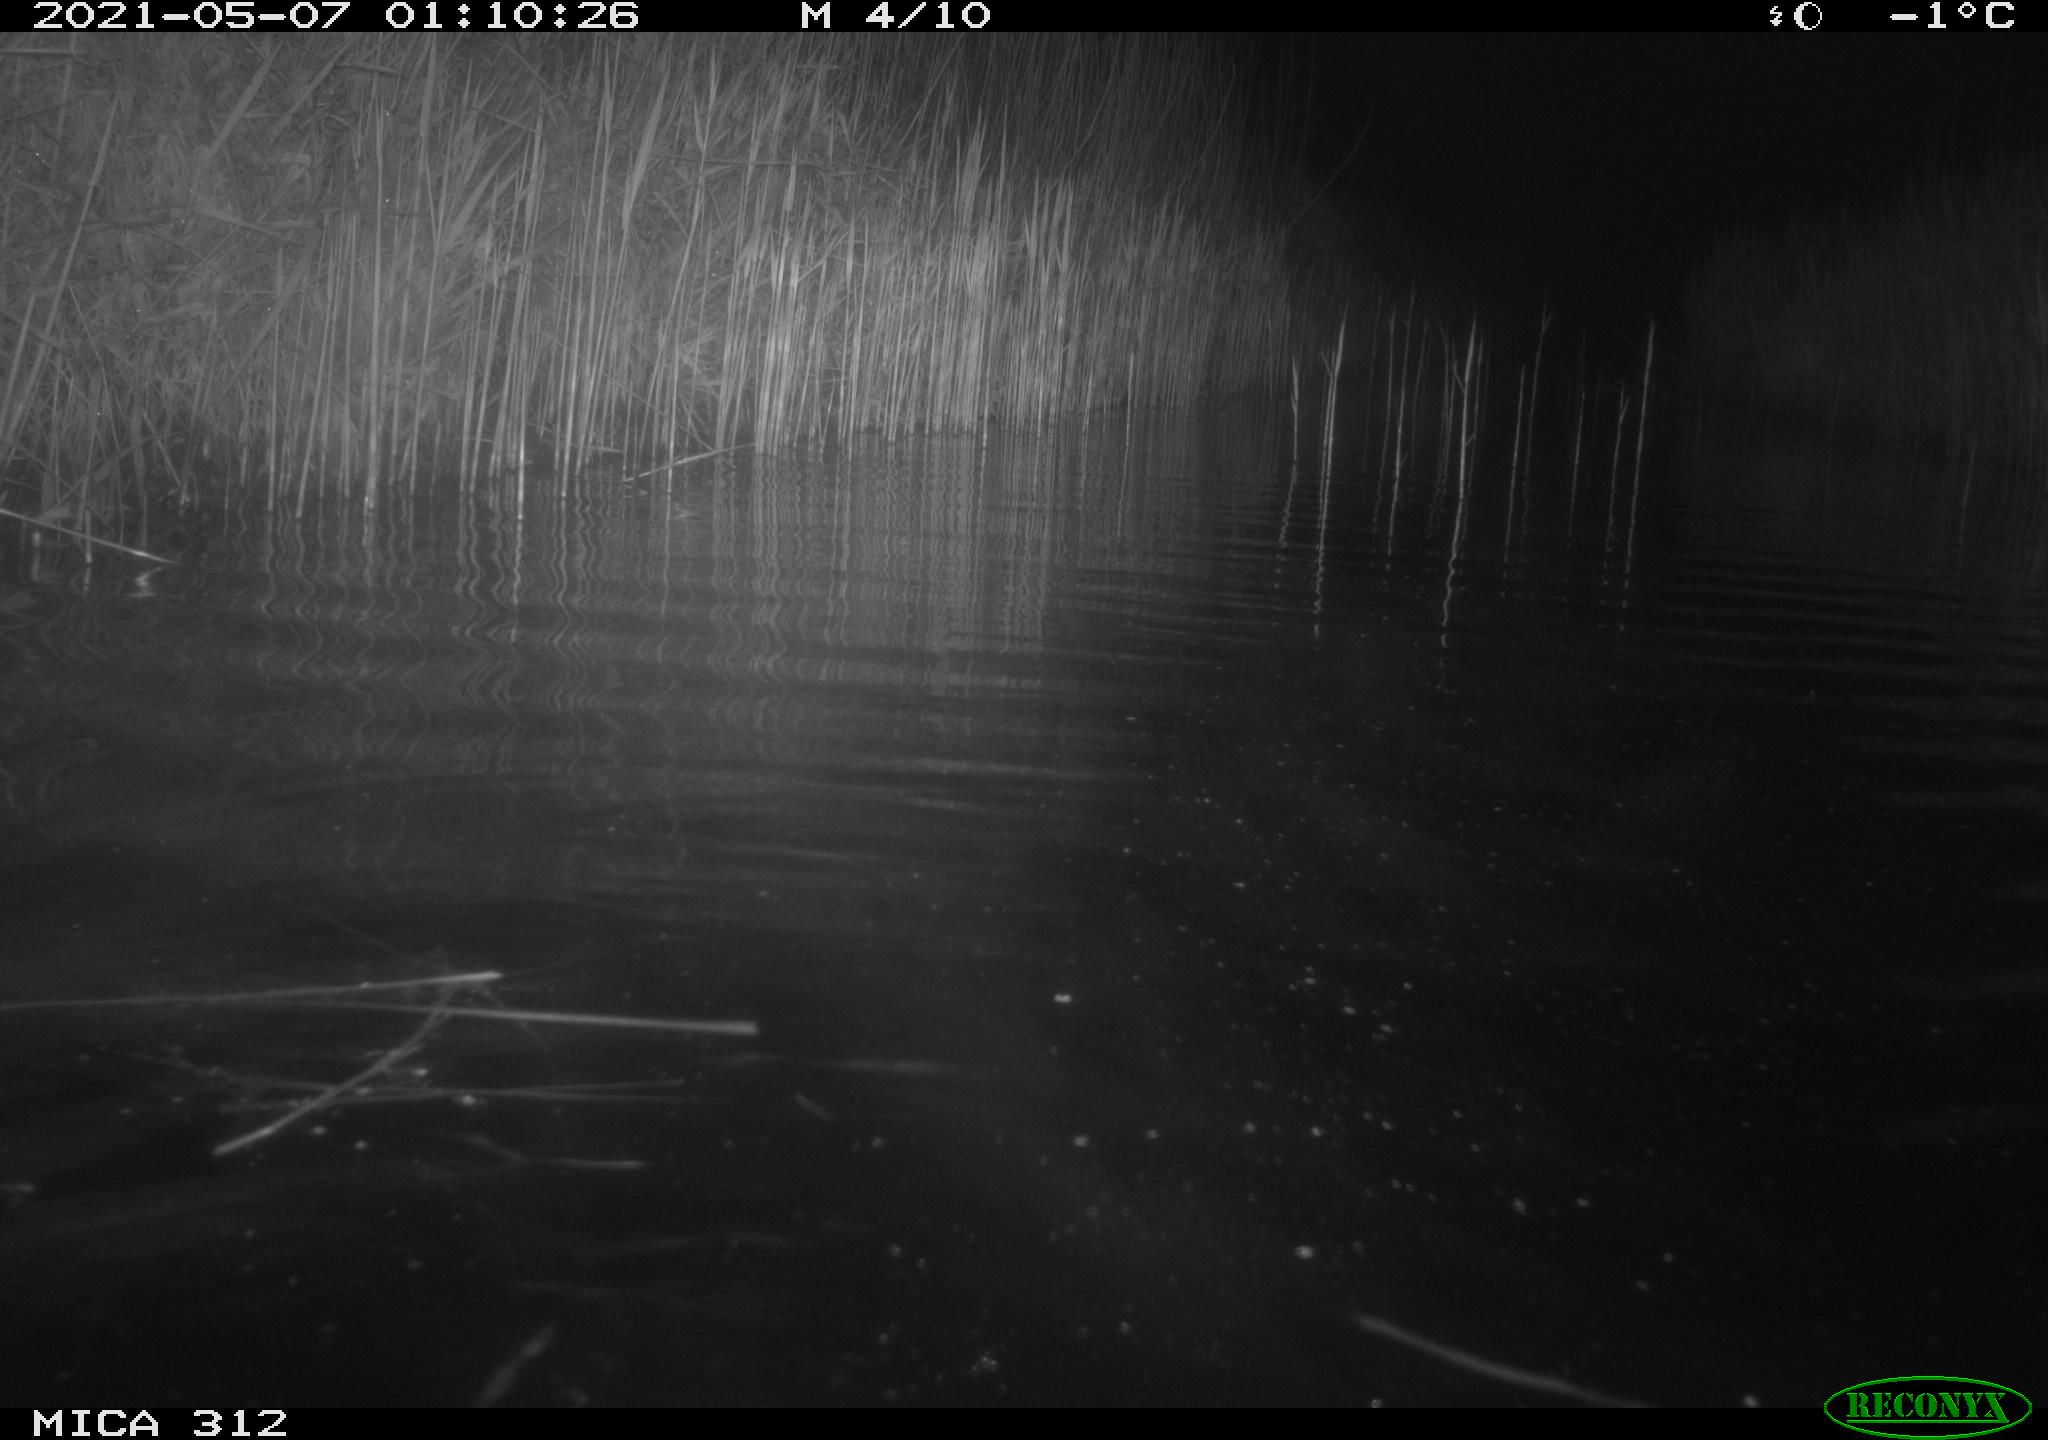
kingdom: Animalia
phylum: Chordata
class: Mammalia
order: Rodentia
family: Cricetidae
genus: Ondatra
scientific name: Ondatra zibethicus
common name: Muskrat
